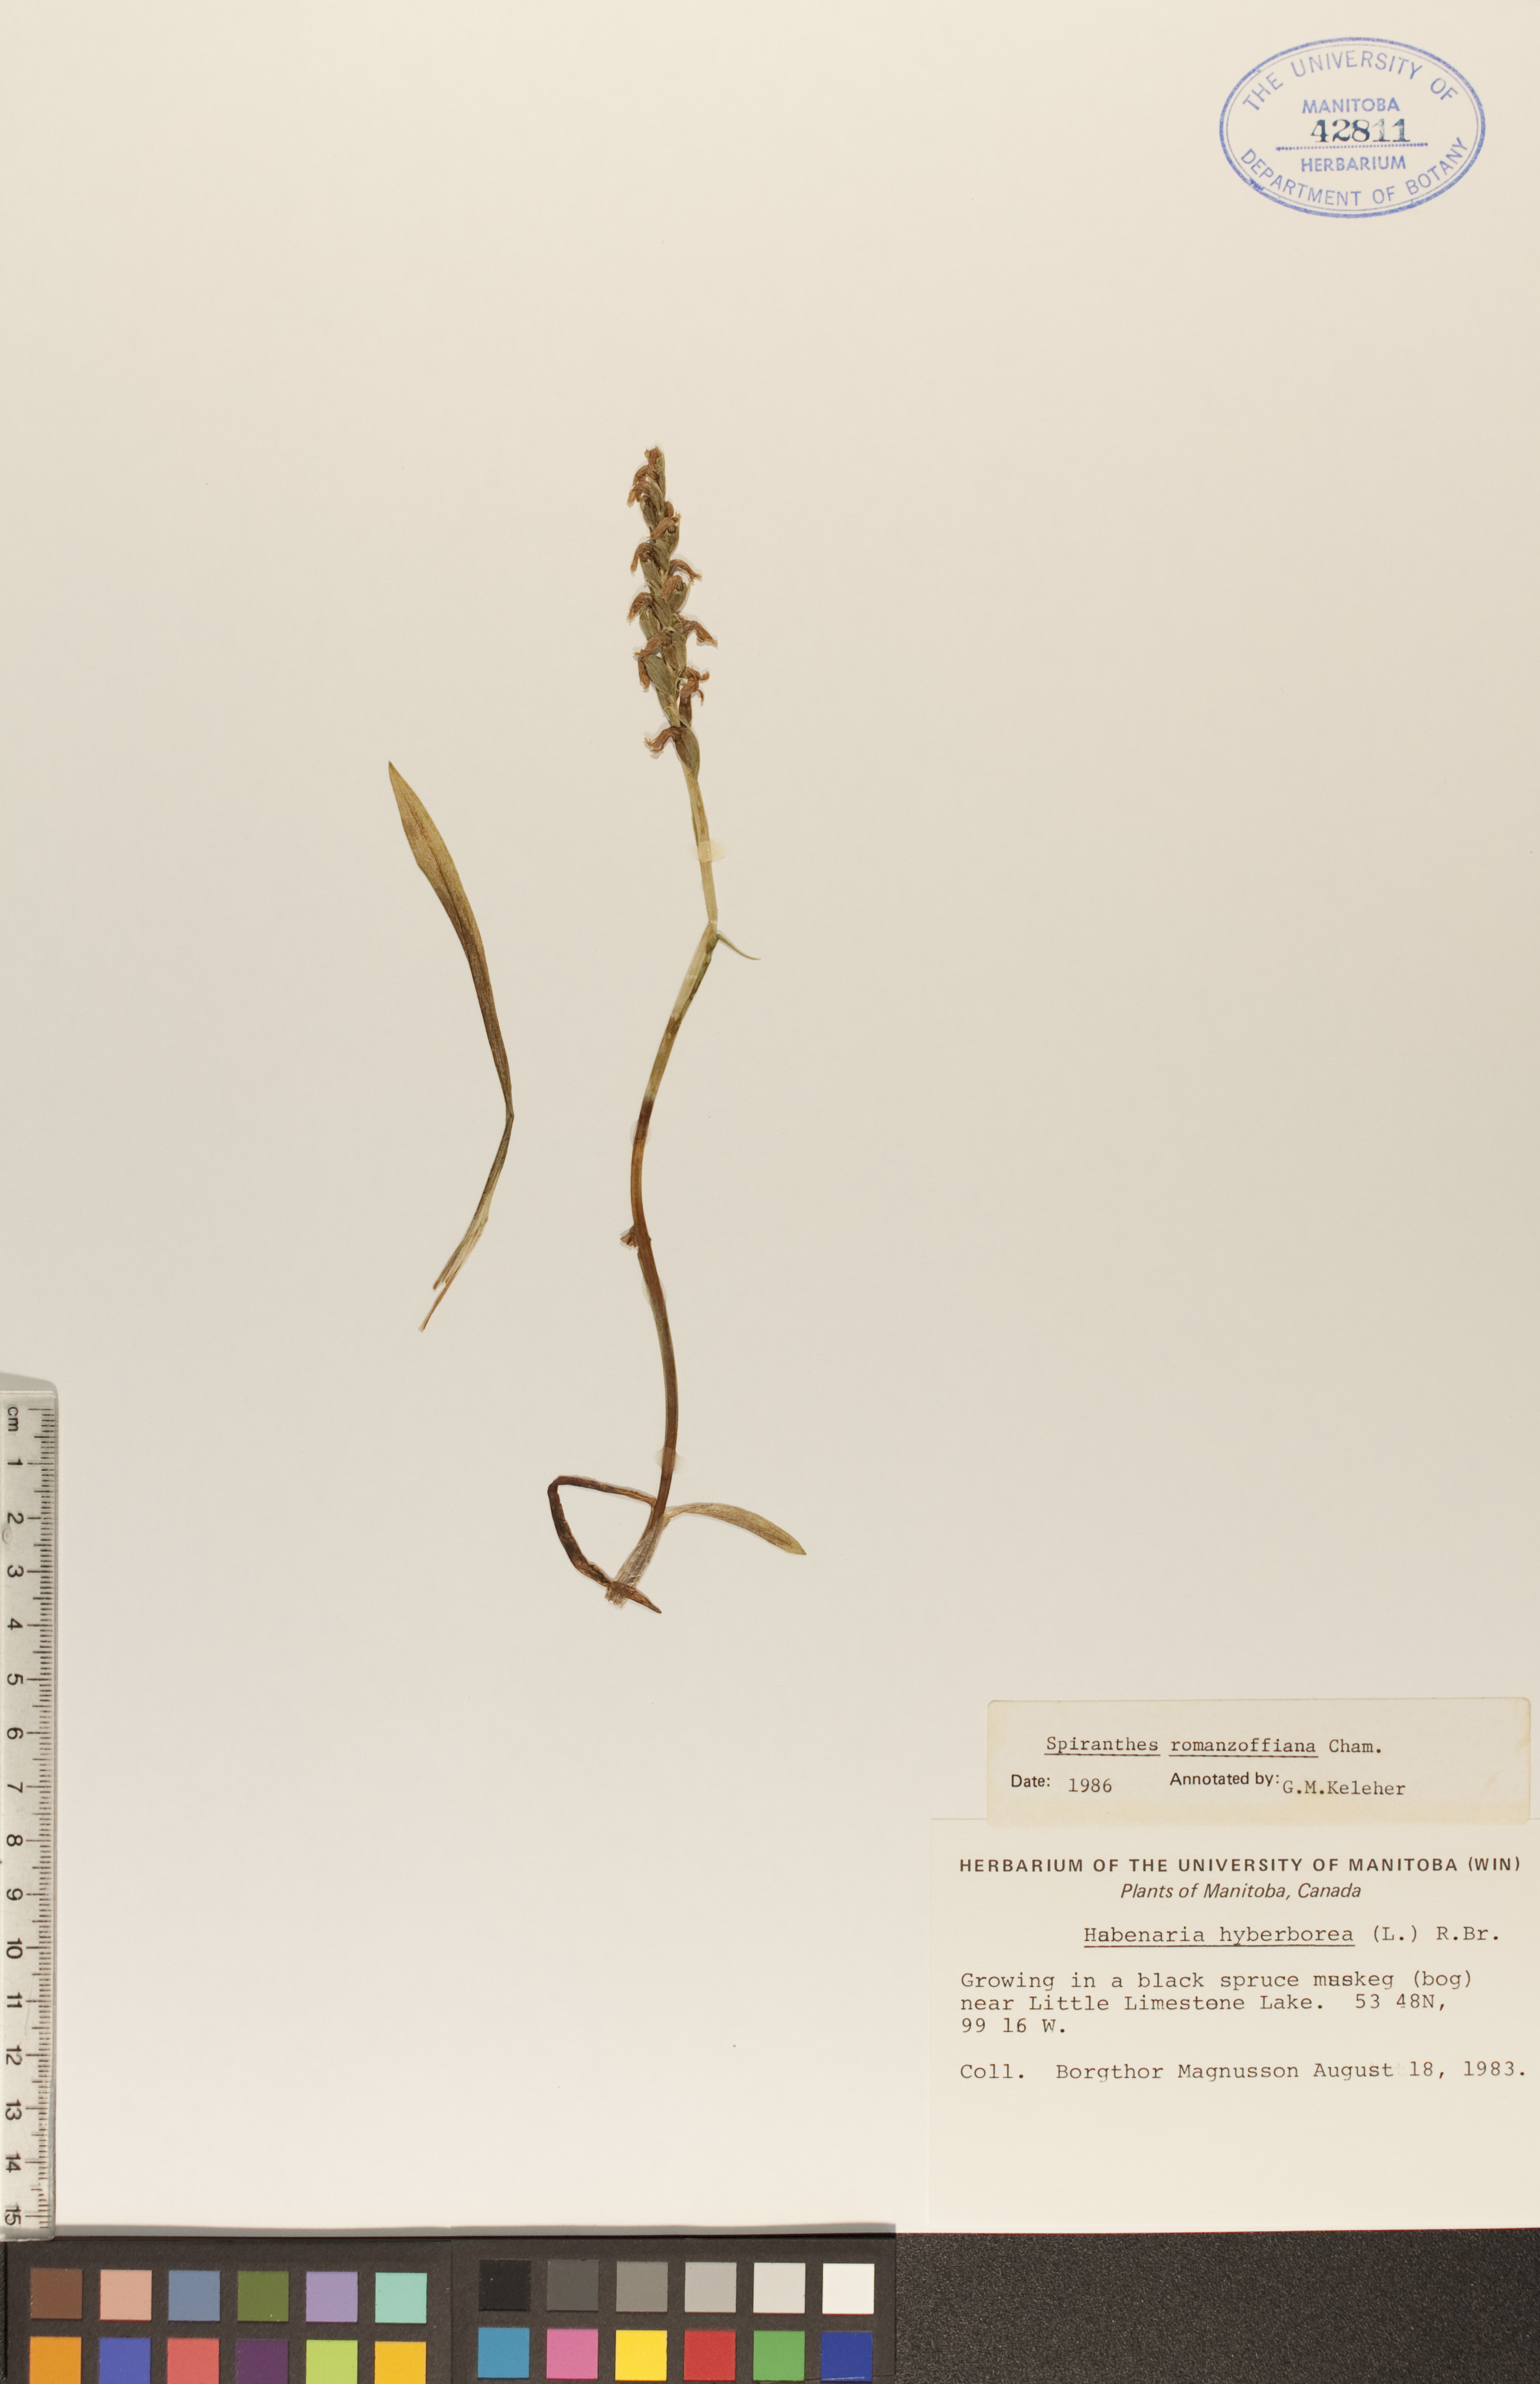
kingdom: Plantae
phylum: Tracheophyta
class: Liliopsida
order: Asparagales
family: Orchidaceae
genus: Spiranthes
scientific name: Spiranthes romanzoffiana
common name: Irish lady's-tresses
